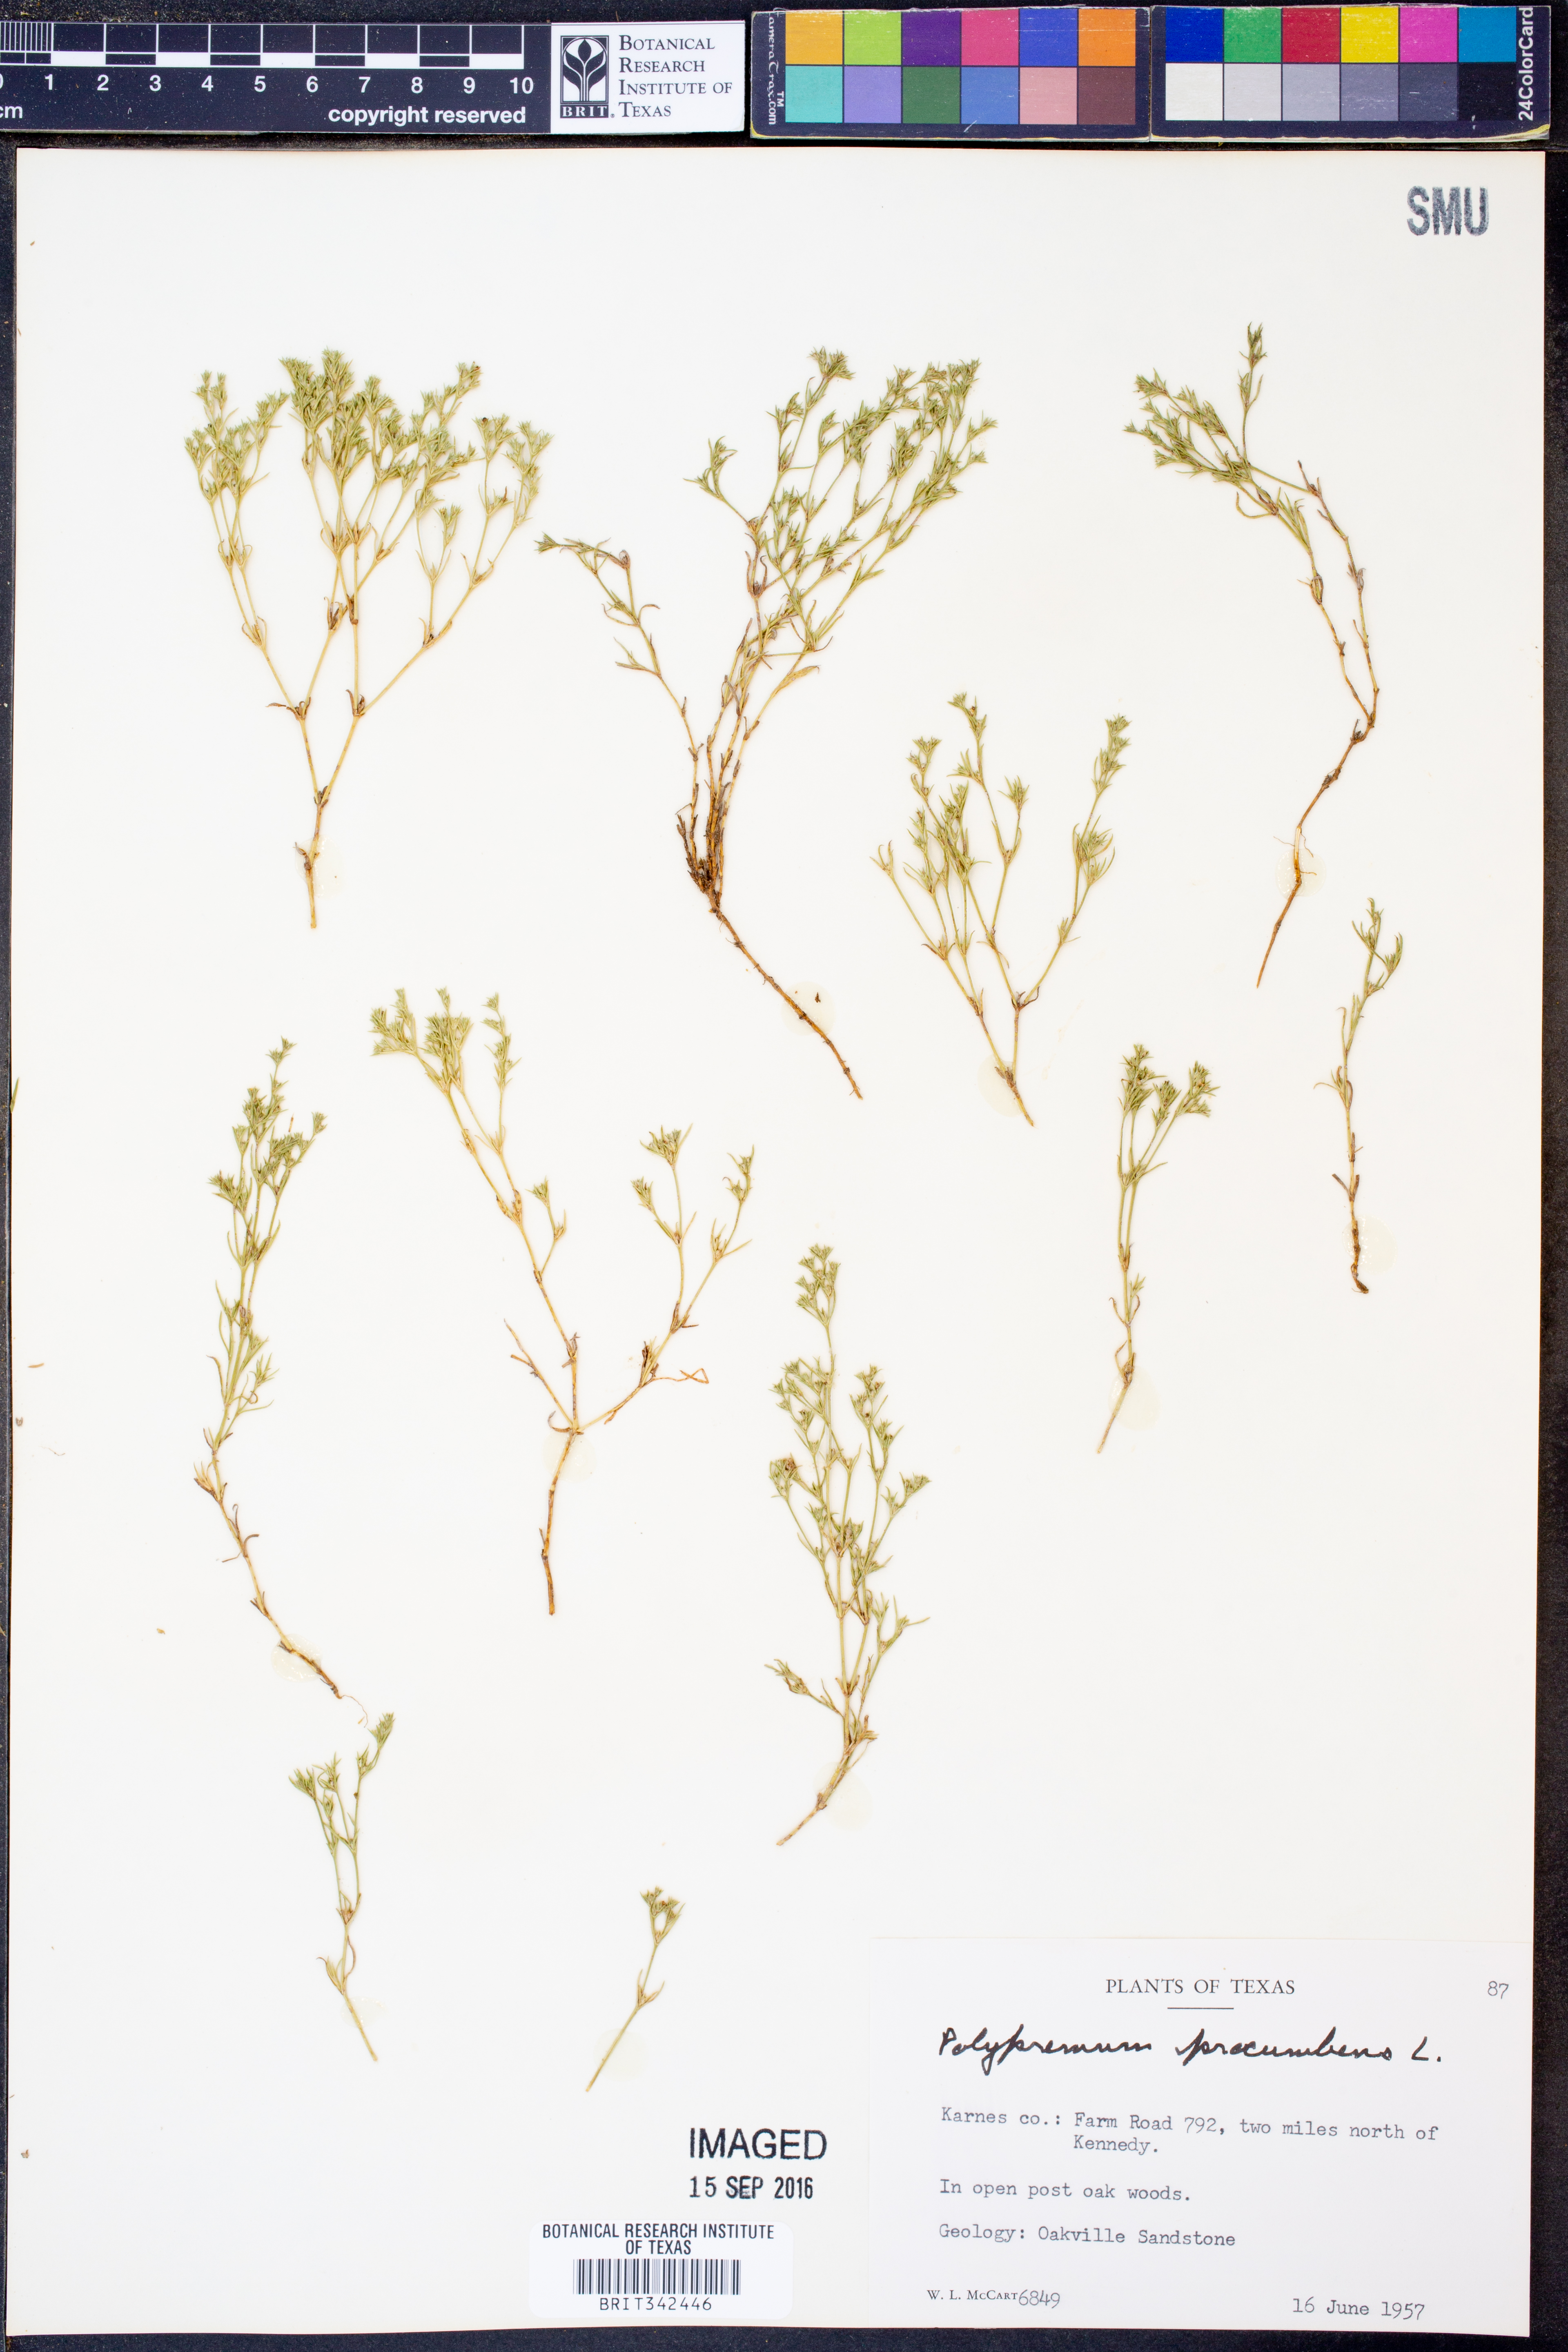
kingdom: Plantae
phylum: Tracheophyta
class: Magnoliopsida
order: Lamiales
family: Tetrachondraceae
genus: Polypremum
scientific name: Polypremum procumbens
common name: Juniper-leaf
